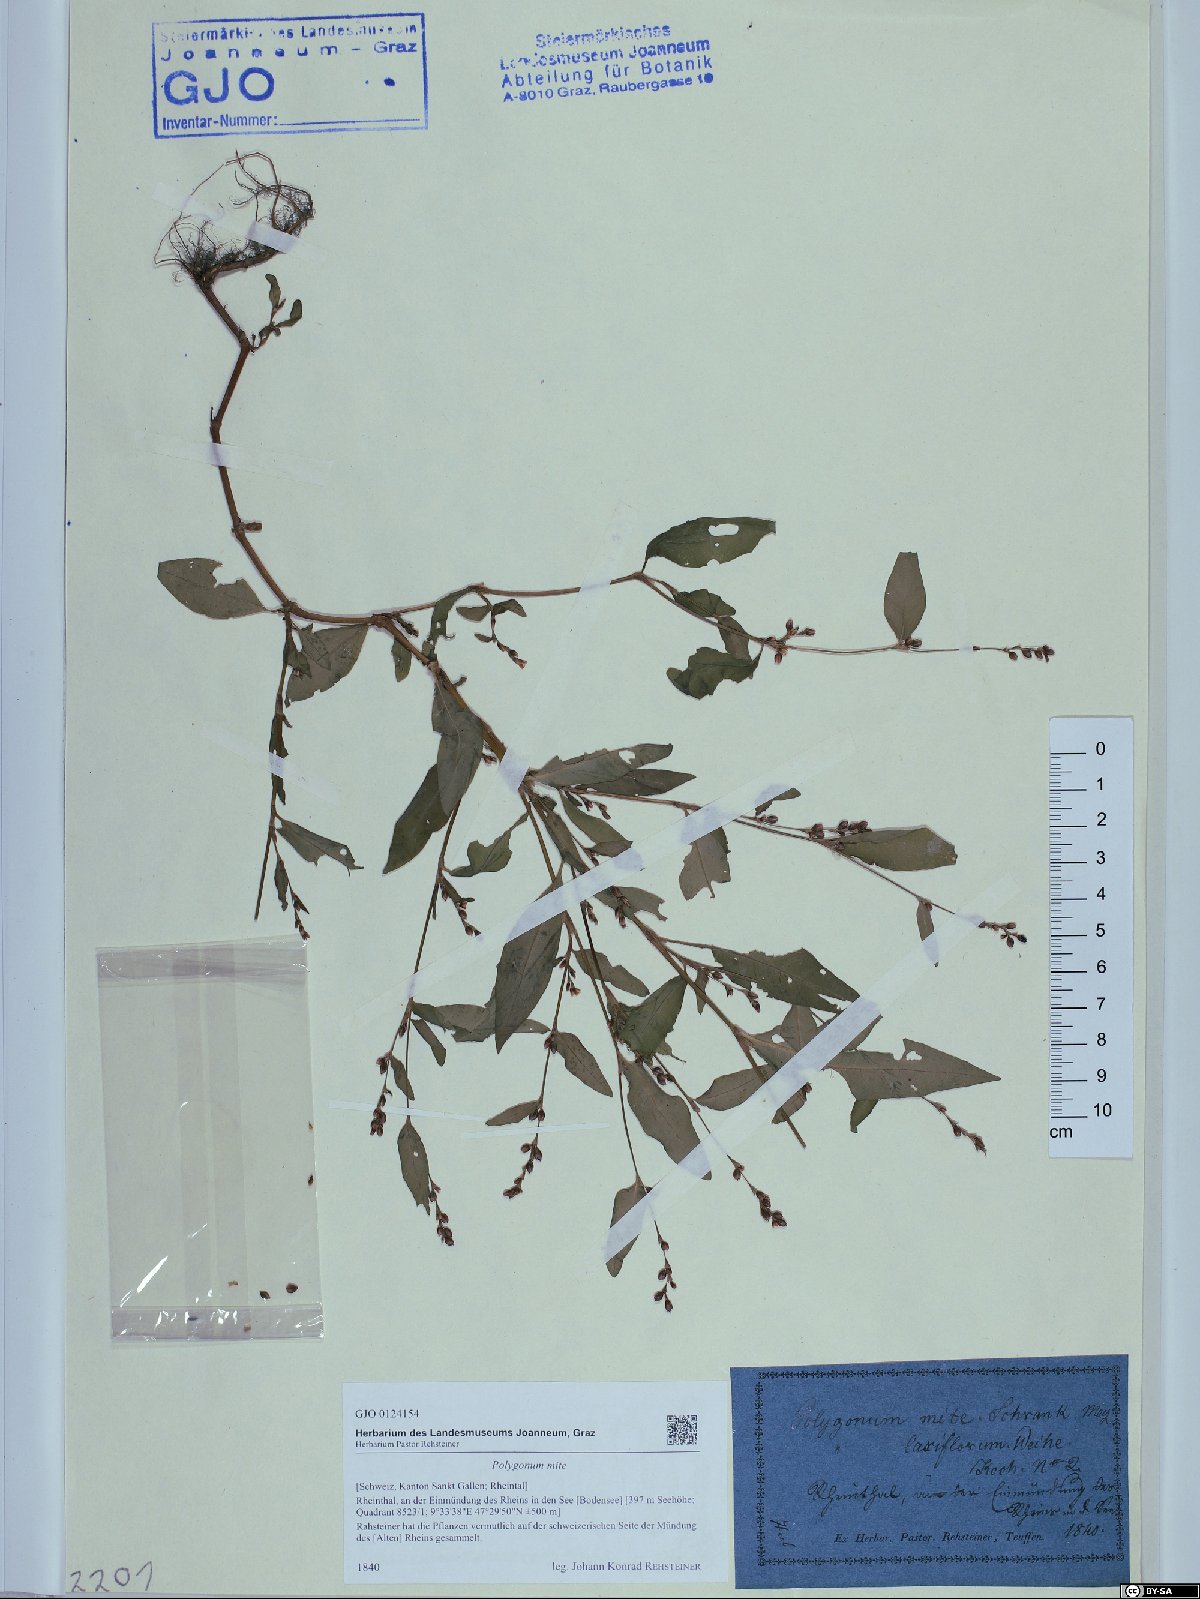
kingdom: Plantae
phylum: Tracheophyta
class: Magnoliopsida
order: Caryophyllales
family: Polygonaceae
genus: Persicaria
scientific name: Persicaria mitis
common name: Tasteless water-pepper
